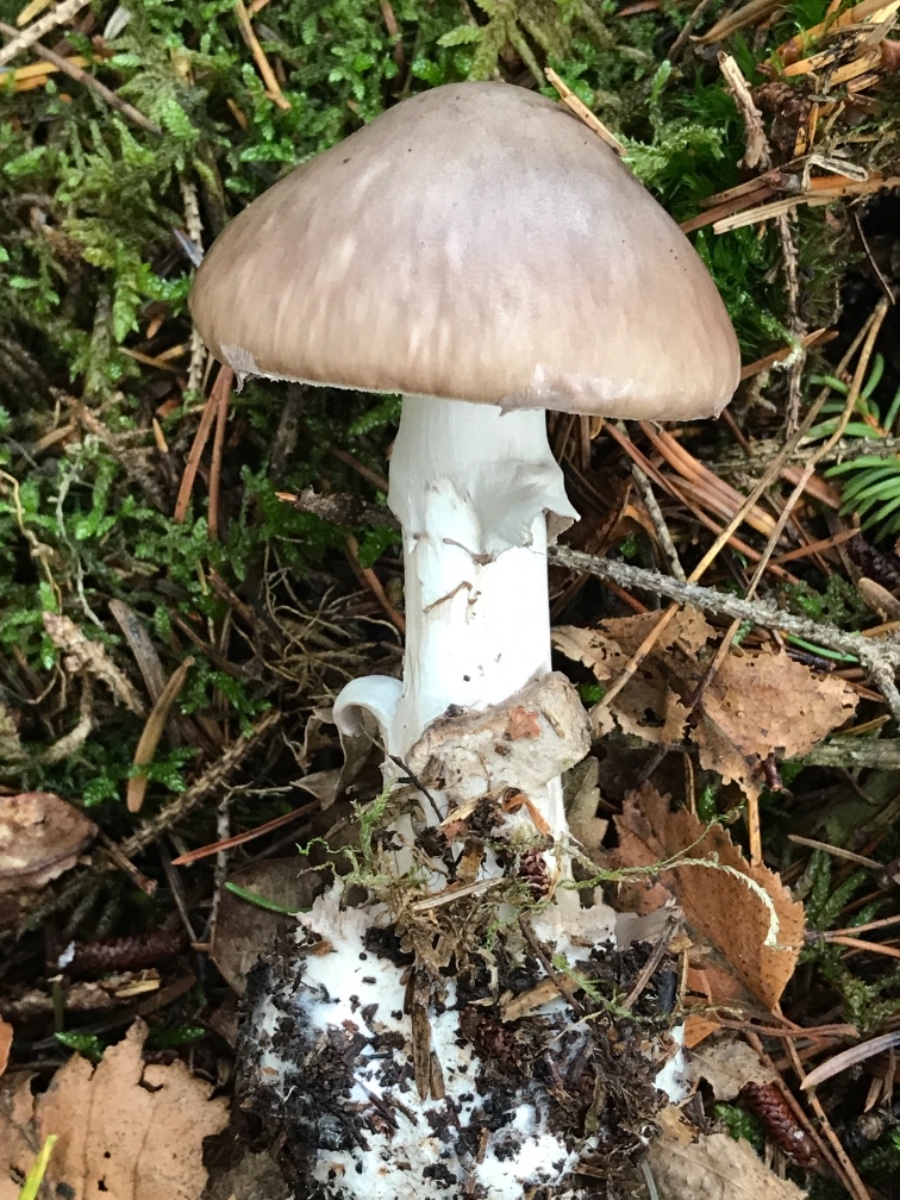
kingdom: Fungi
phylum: Basidiomycota
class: Agaricomycetes
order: Agaricales
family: Amanitaceae
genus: Amanita
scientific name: Amanita porphyria
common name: porfyr-fluesvamp
